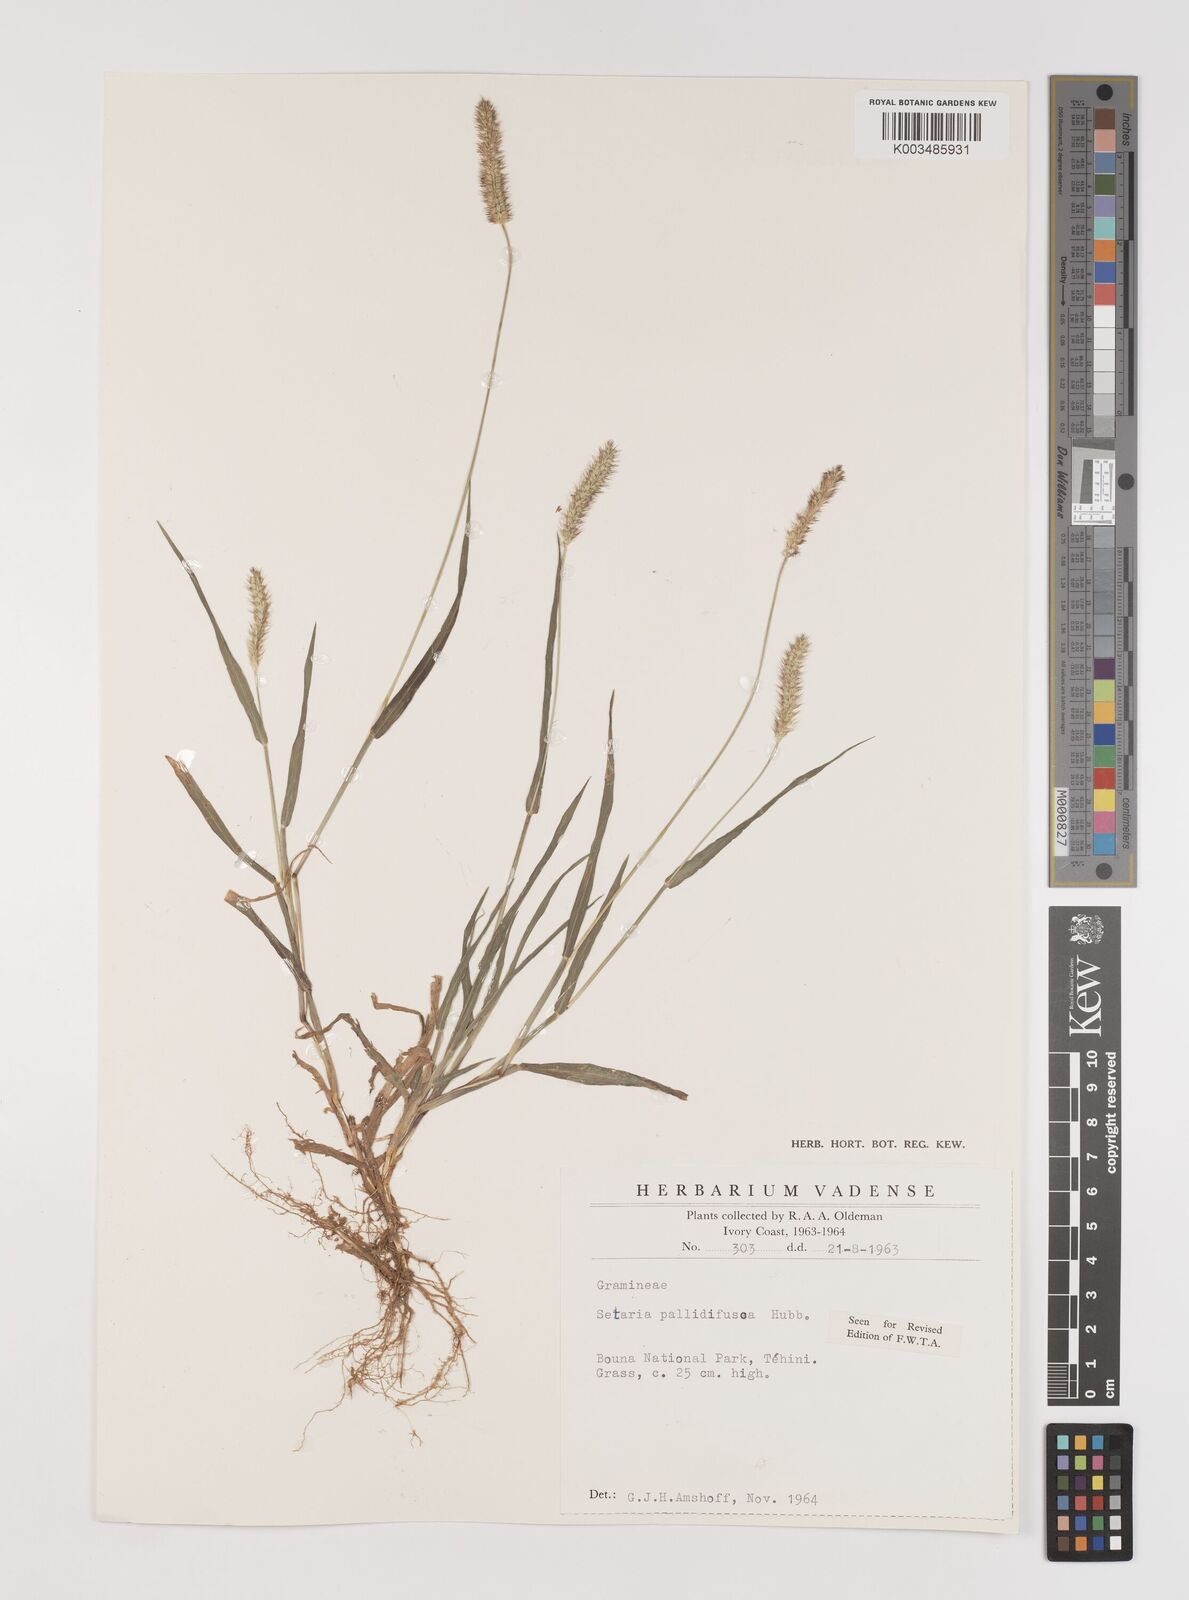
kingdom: Plantae
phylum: Tracheophyta
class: Liliopsida
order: Poales
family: Poaceae
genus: Setaria
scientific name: Setaria pumila
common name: Yellow bristle-grass
